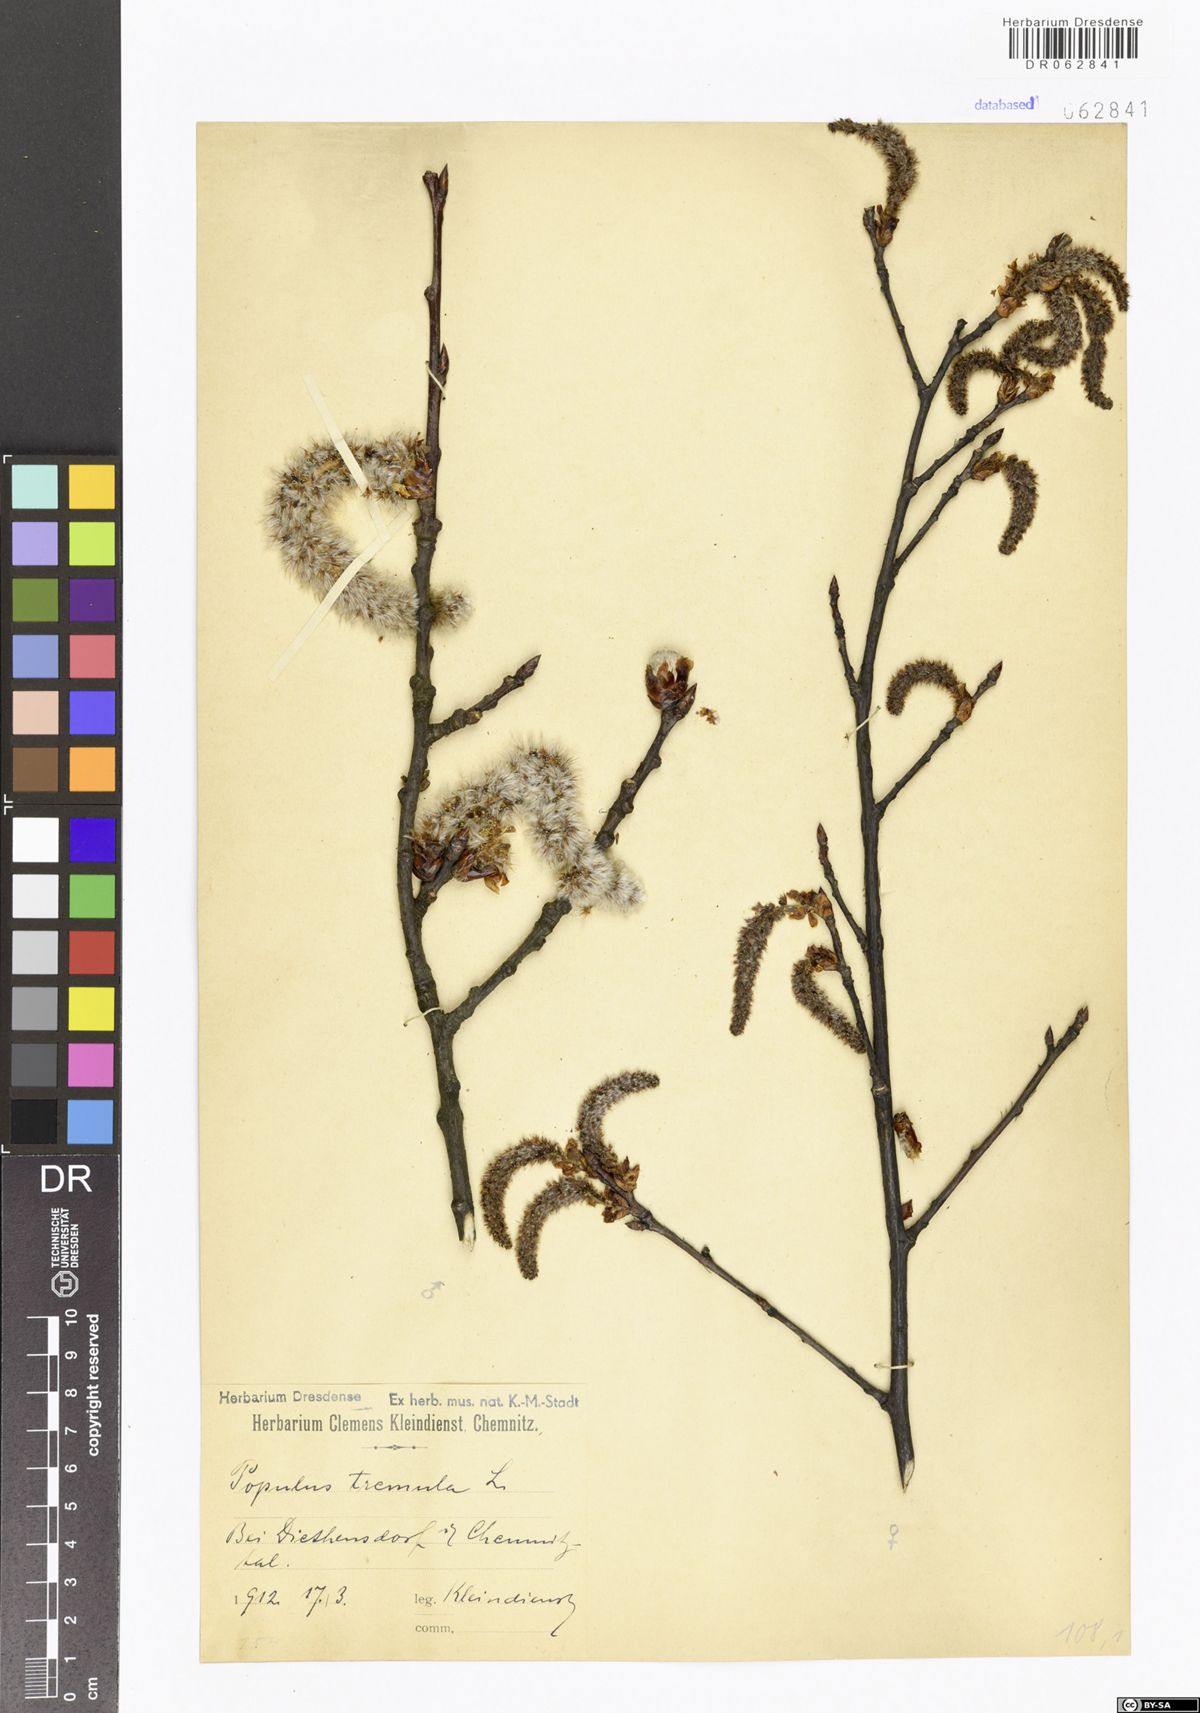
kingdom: Plantae
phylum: Tracheophyta
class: Magnoliopsida
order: Malpighiales
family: Salicaceae
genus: Populus
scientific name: Populus tremula
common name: European aspen
